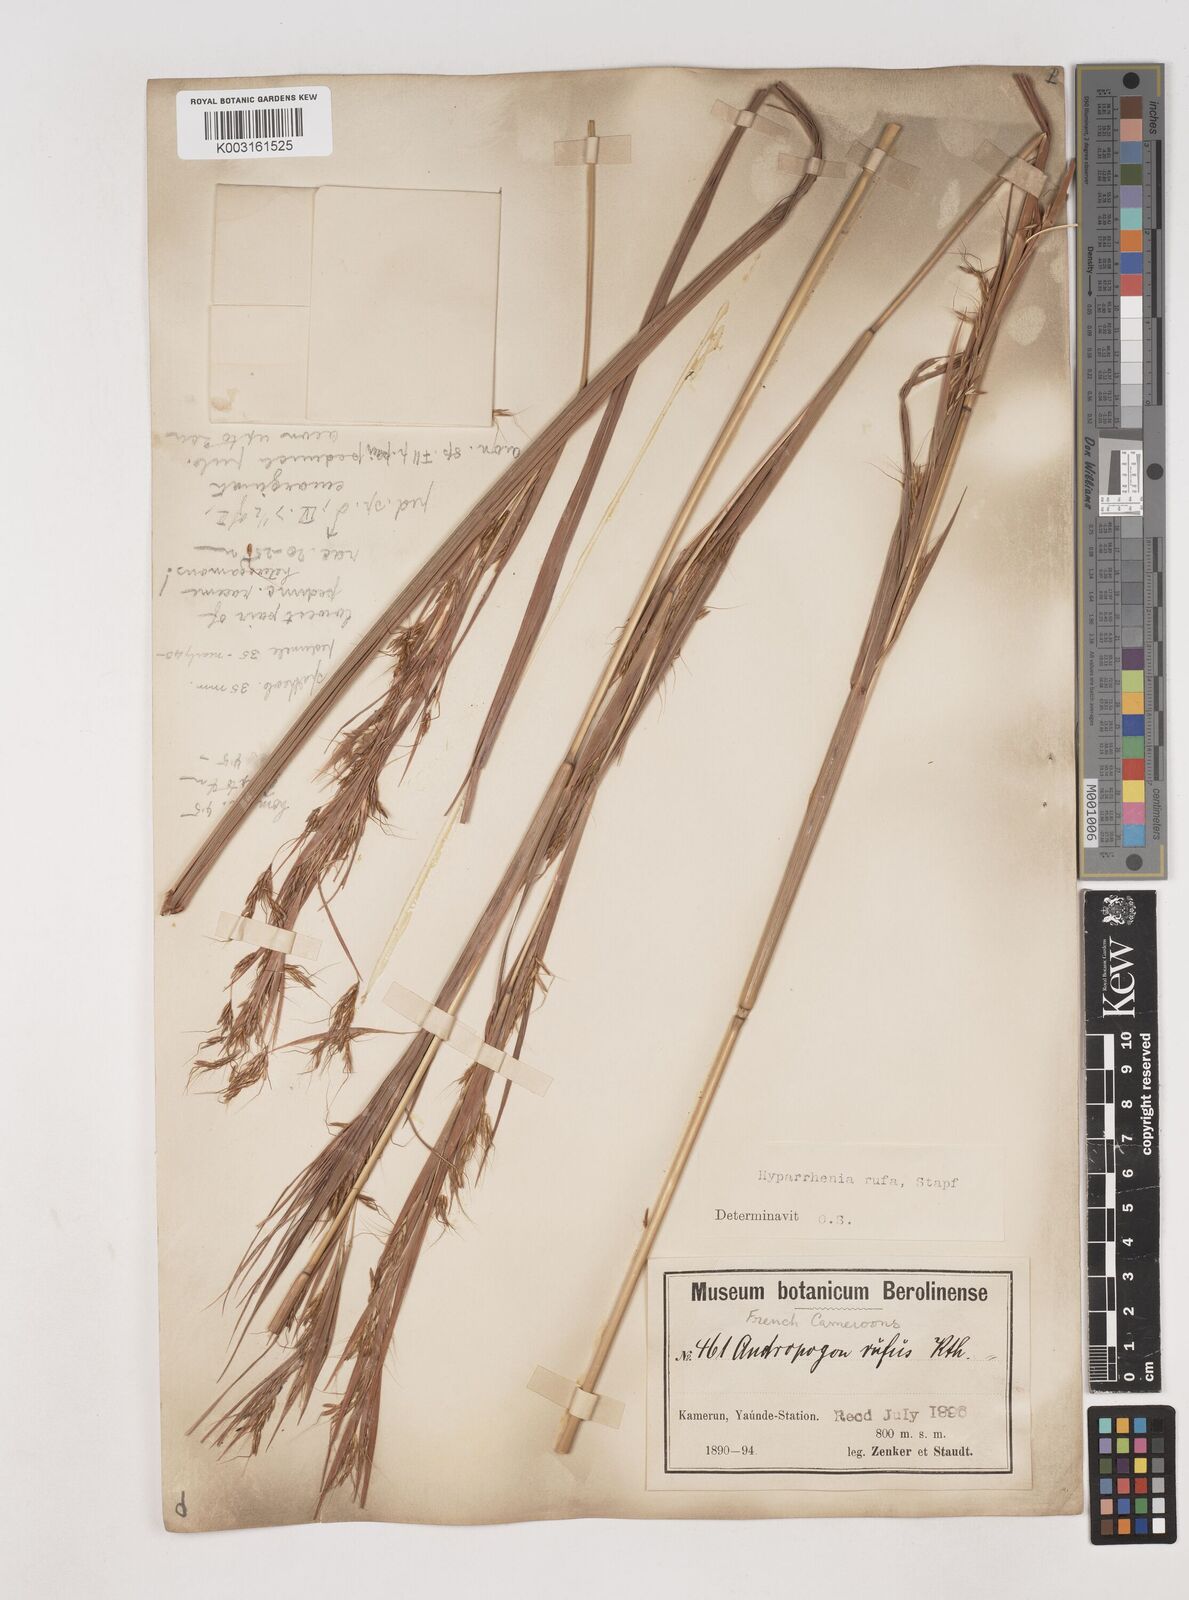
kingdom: Plantae
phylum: Tracheophyta
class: Liliopsida
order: Poales
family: Poaceae
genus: Hyparrhenia
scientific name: Hyparrhenia rufa
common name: Jaraguagrass
